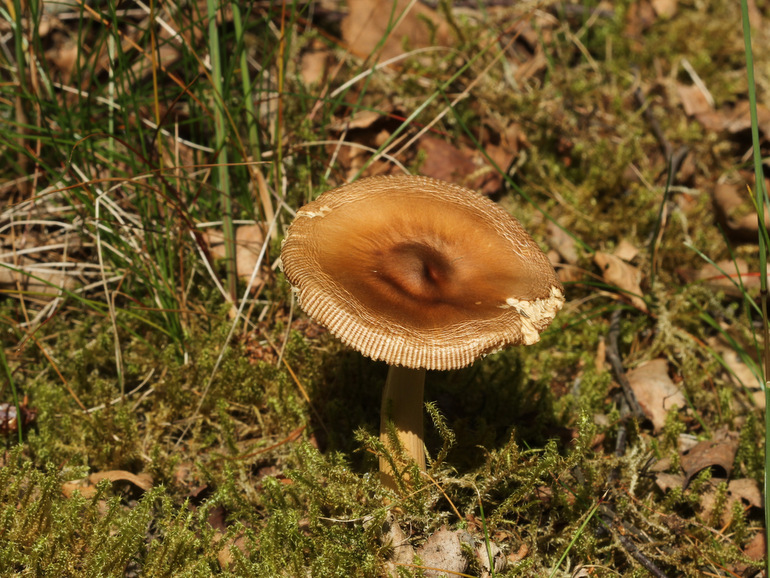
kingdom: Fungi
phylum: Basidiomycota
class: Agaricomycetes
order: Agaricales
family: Amanitaceae
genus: Amanita
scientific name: Amanita fulva
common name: brun kam-fluesvamp
